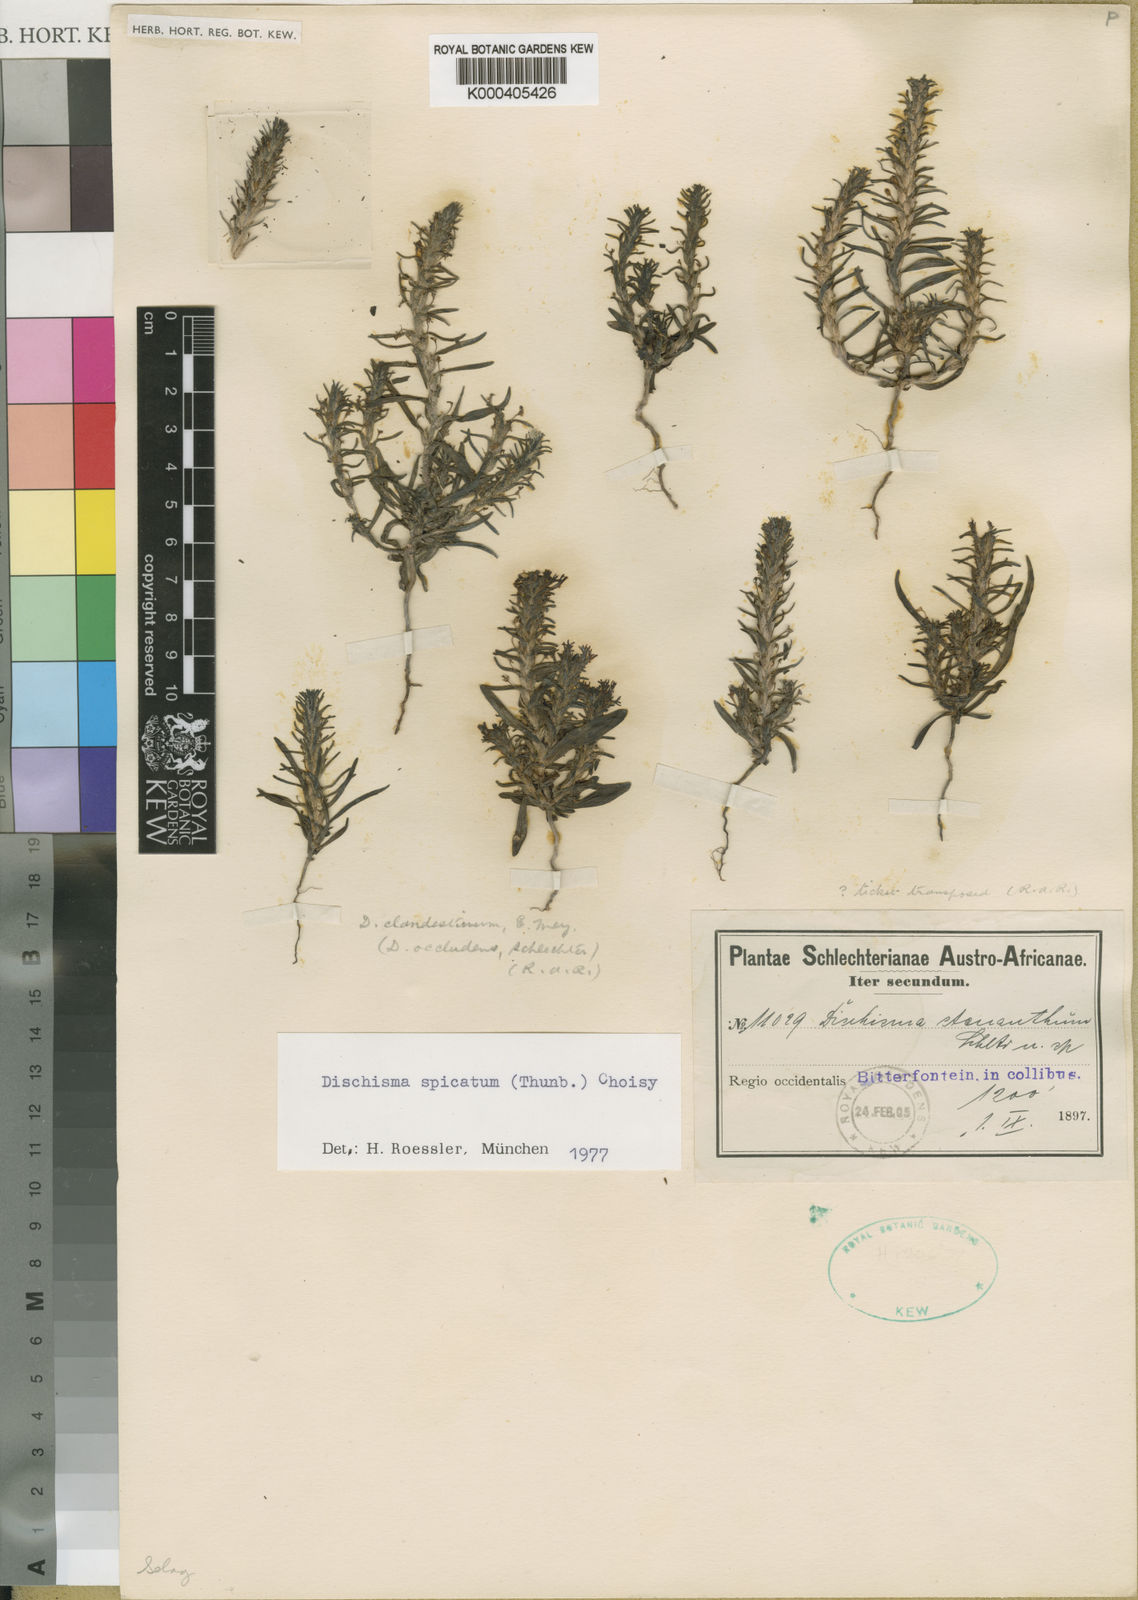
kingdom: Plantae
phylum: Tracheophyta
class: Magnoliopsida
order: Lamiales
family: Scrophulariaceae
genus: Dischisma
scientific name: Dischisma clandestinum
